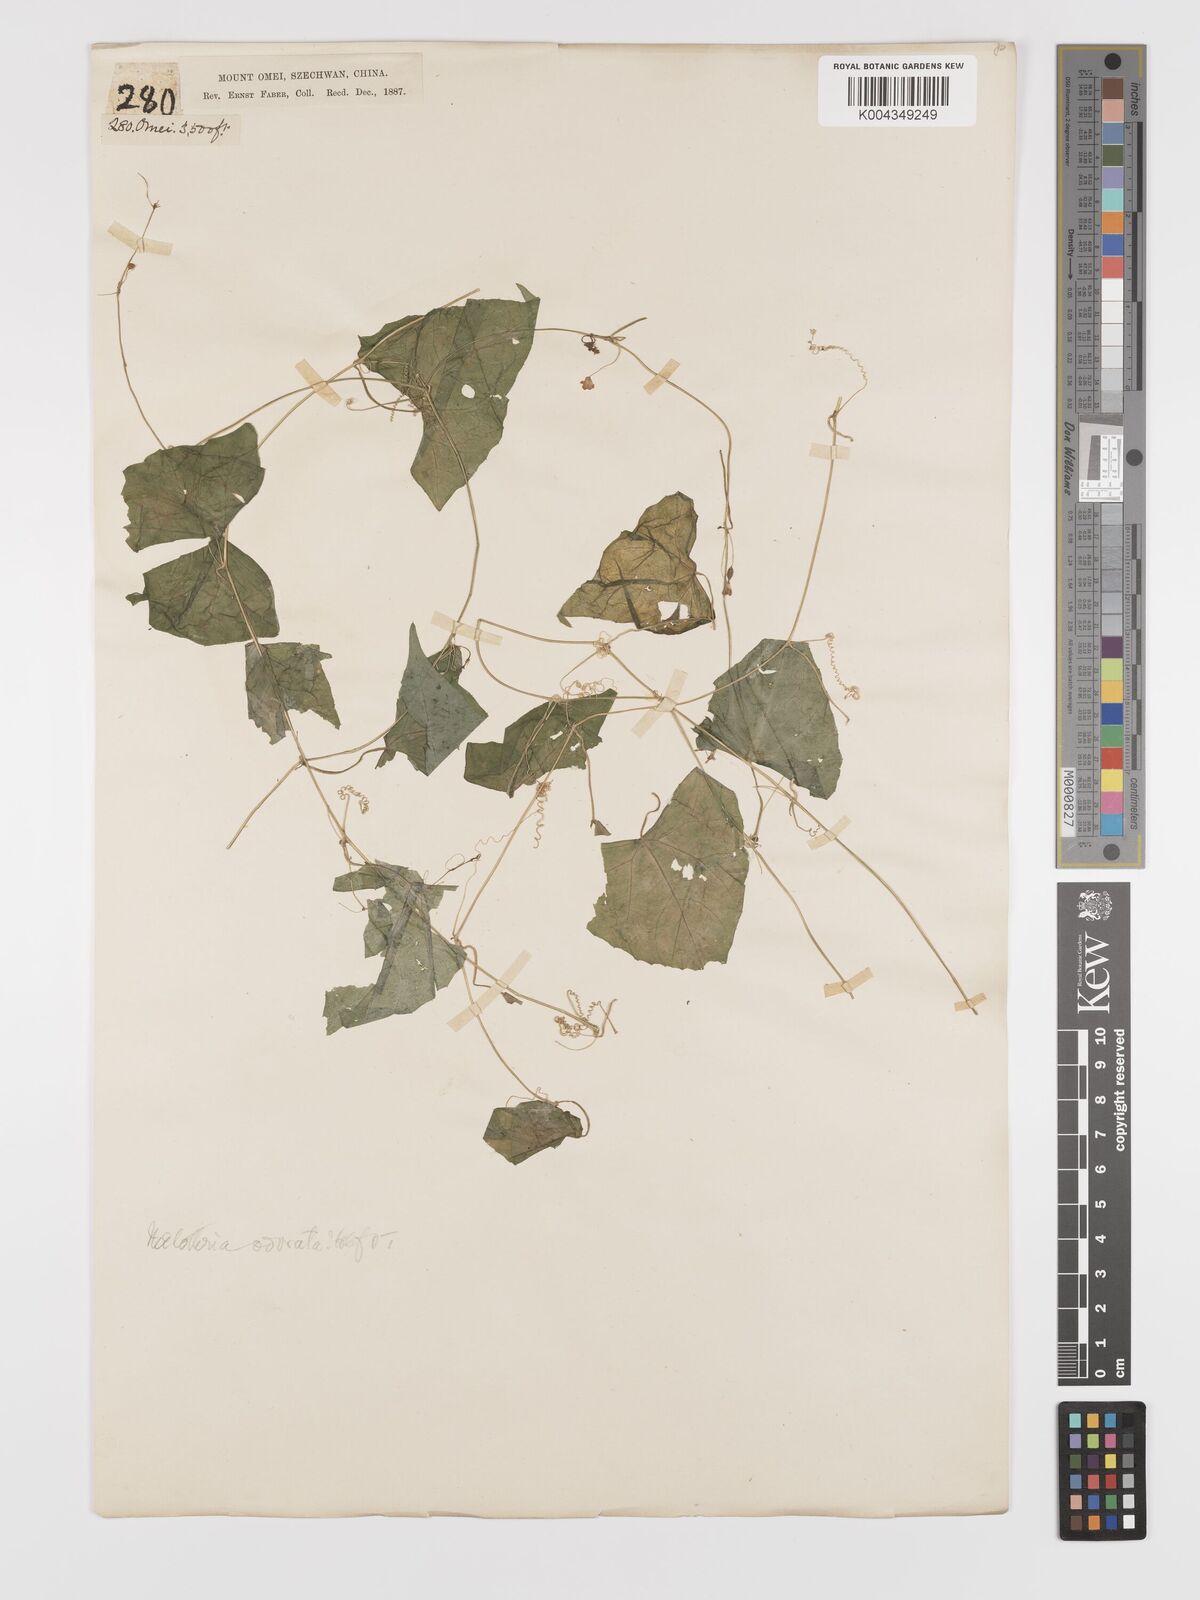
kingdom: Plantae
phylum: Tracheophyta
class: Magnoliopsida
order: Cucurbitales
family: Cucurbitaceae
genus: Zehneria
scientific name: Zehneria japonica
